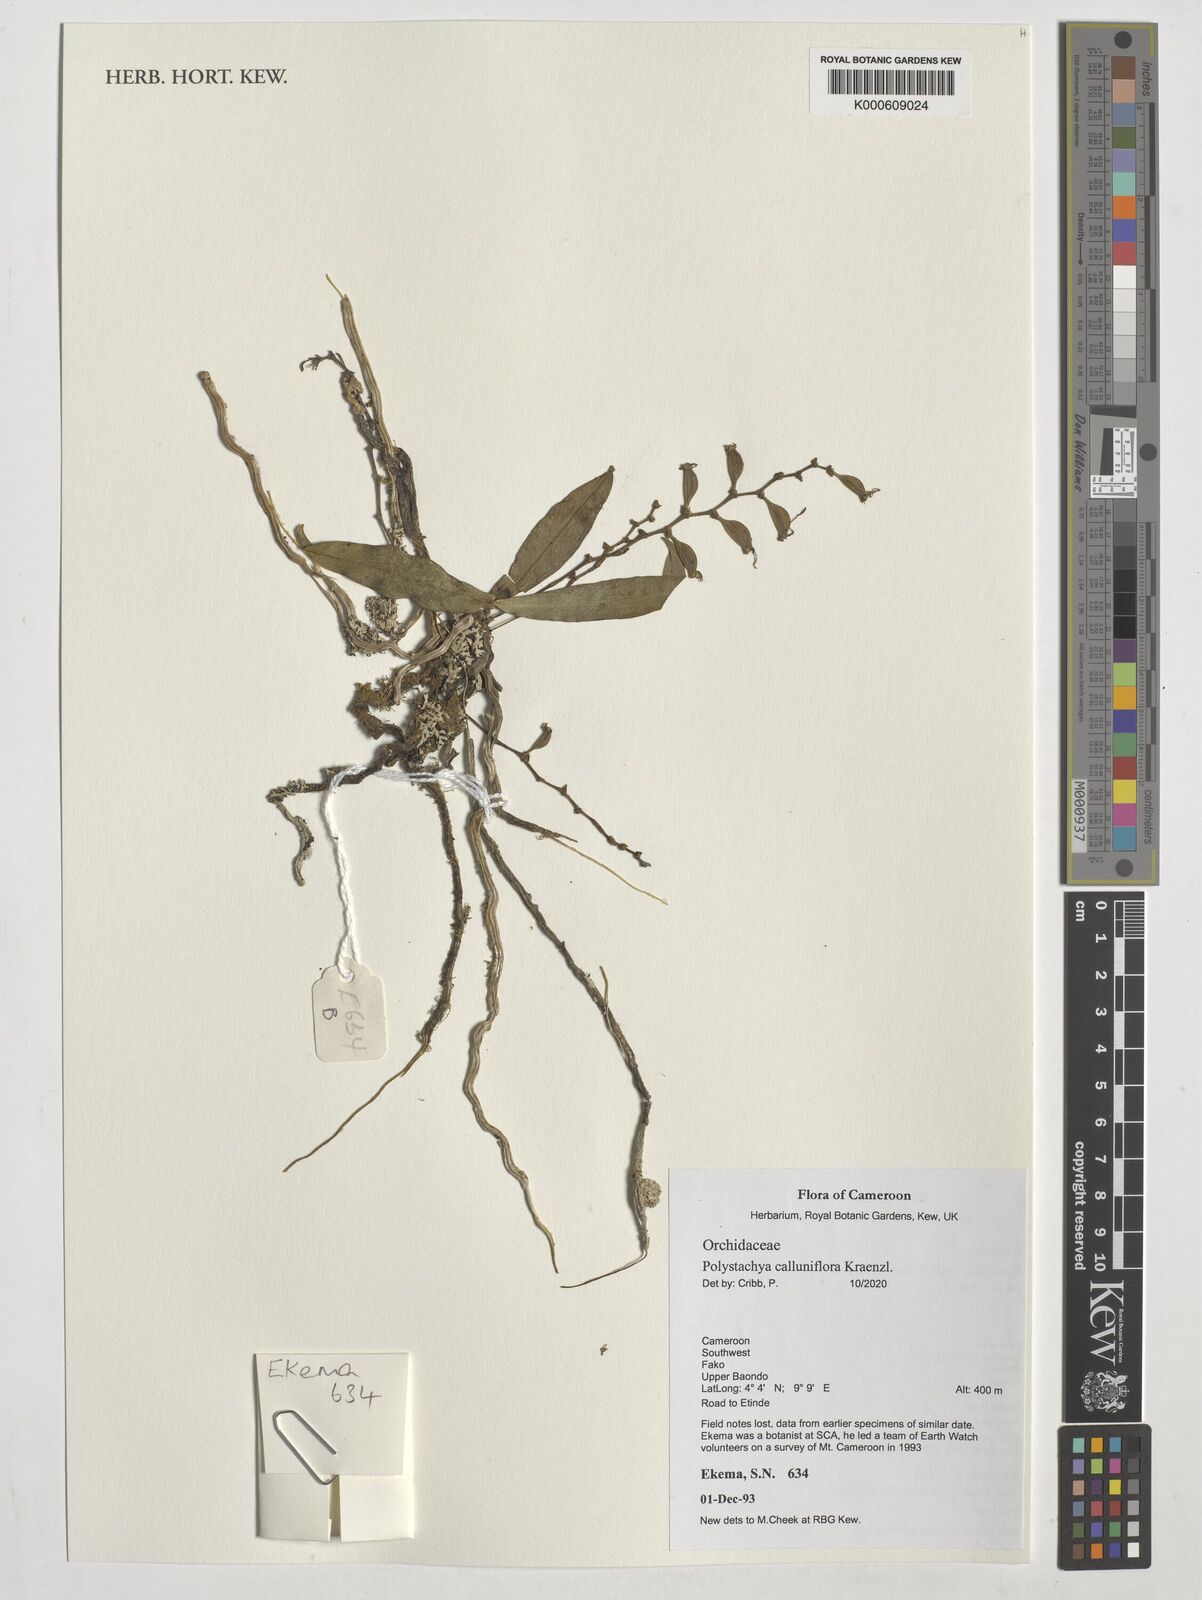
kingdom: Plantae
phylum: Tracheophyta
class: Liliopsida
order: Asparagales
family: Orchidaceae
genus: Polystachya
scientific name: Polystachya calluniflora
